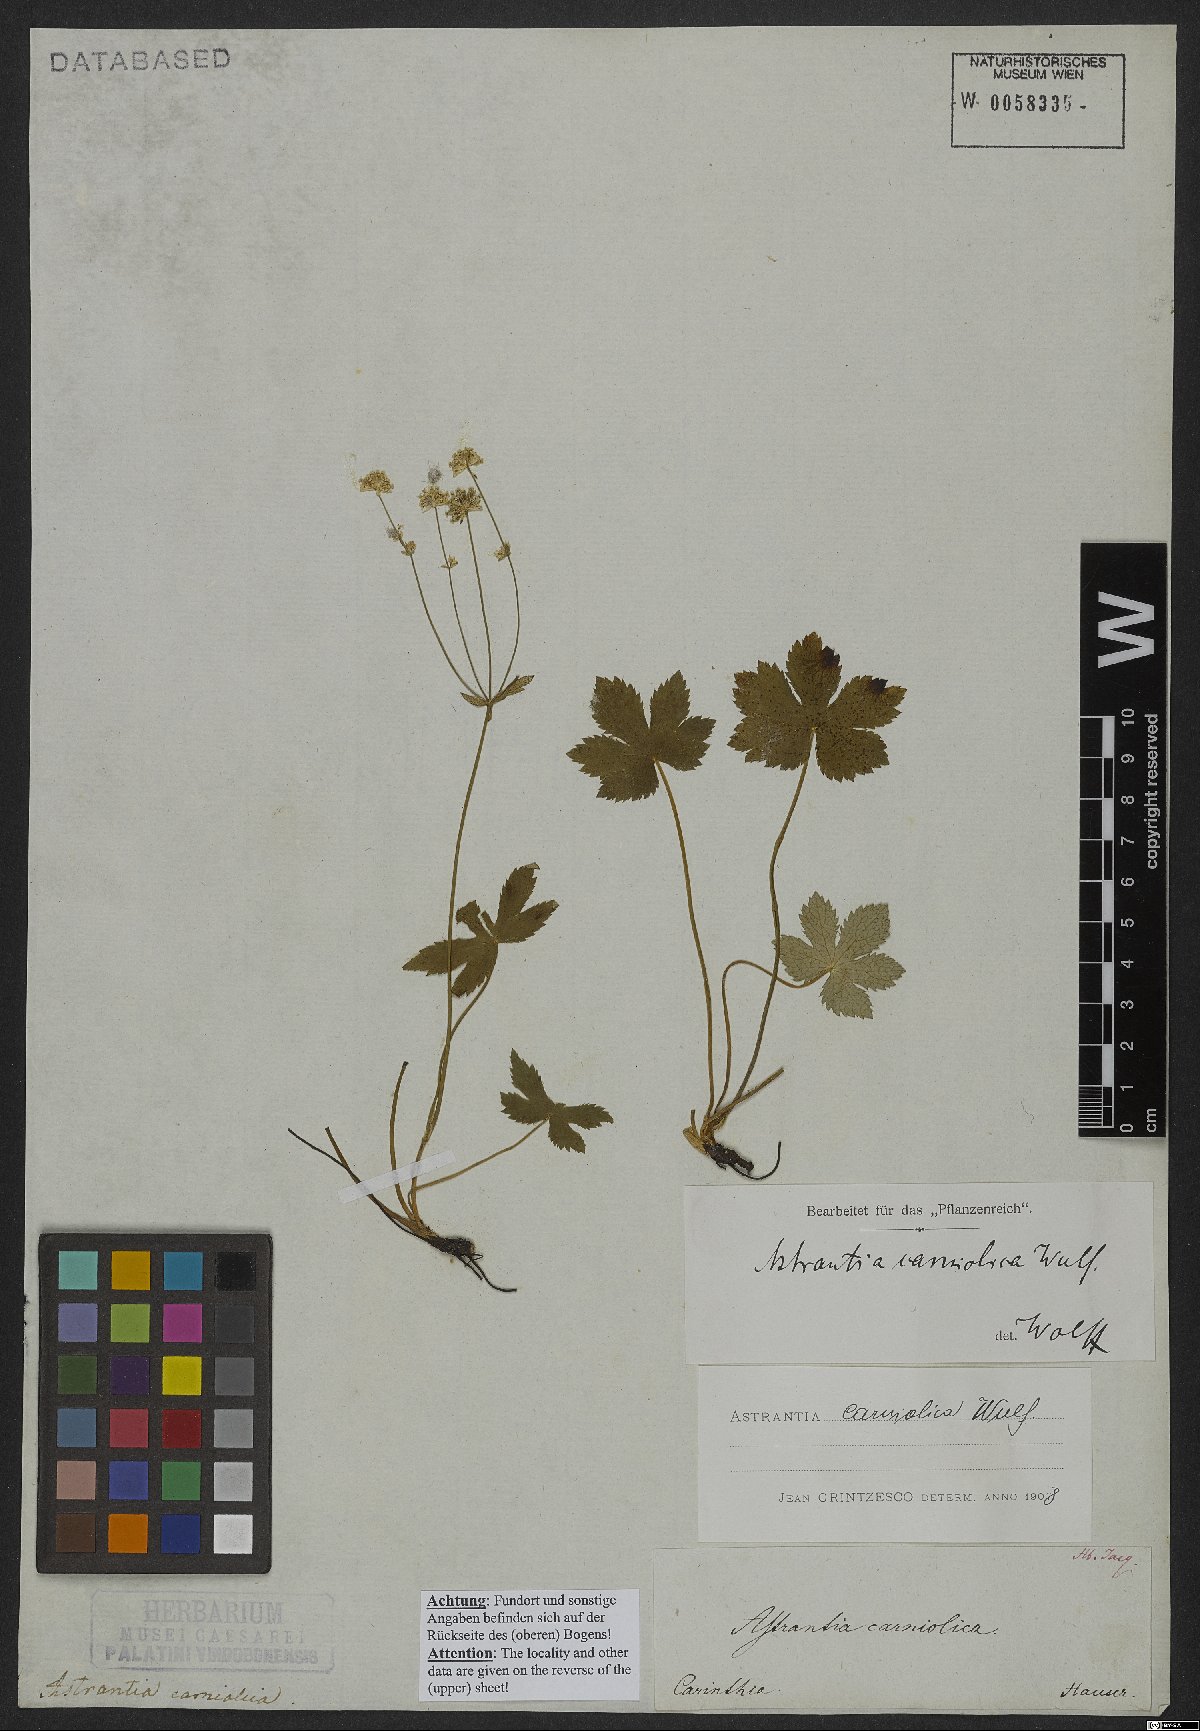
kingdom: Plantae
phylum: Tracheophyta
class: Magnoliopsida
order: Apiales
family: Apiaceae
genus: Astrantia
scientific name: Astrantia carniolica
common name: Carnic masterwort
